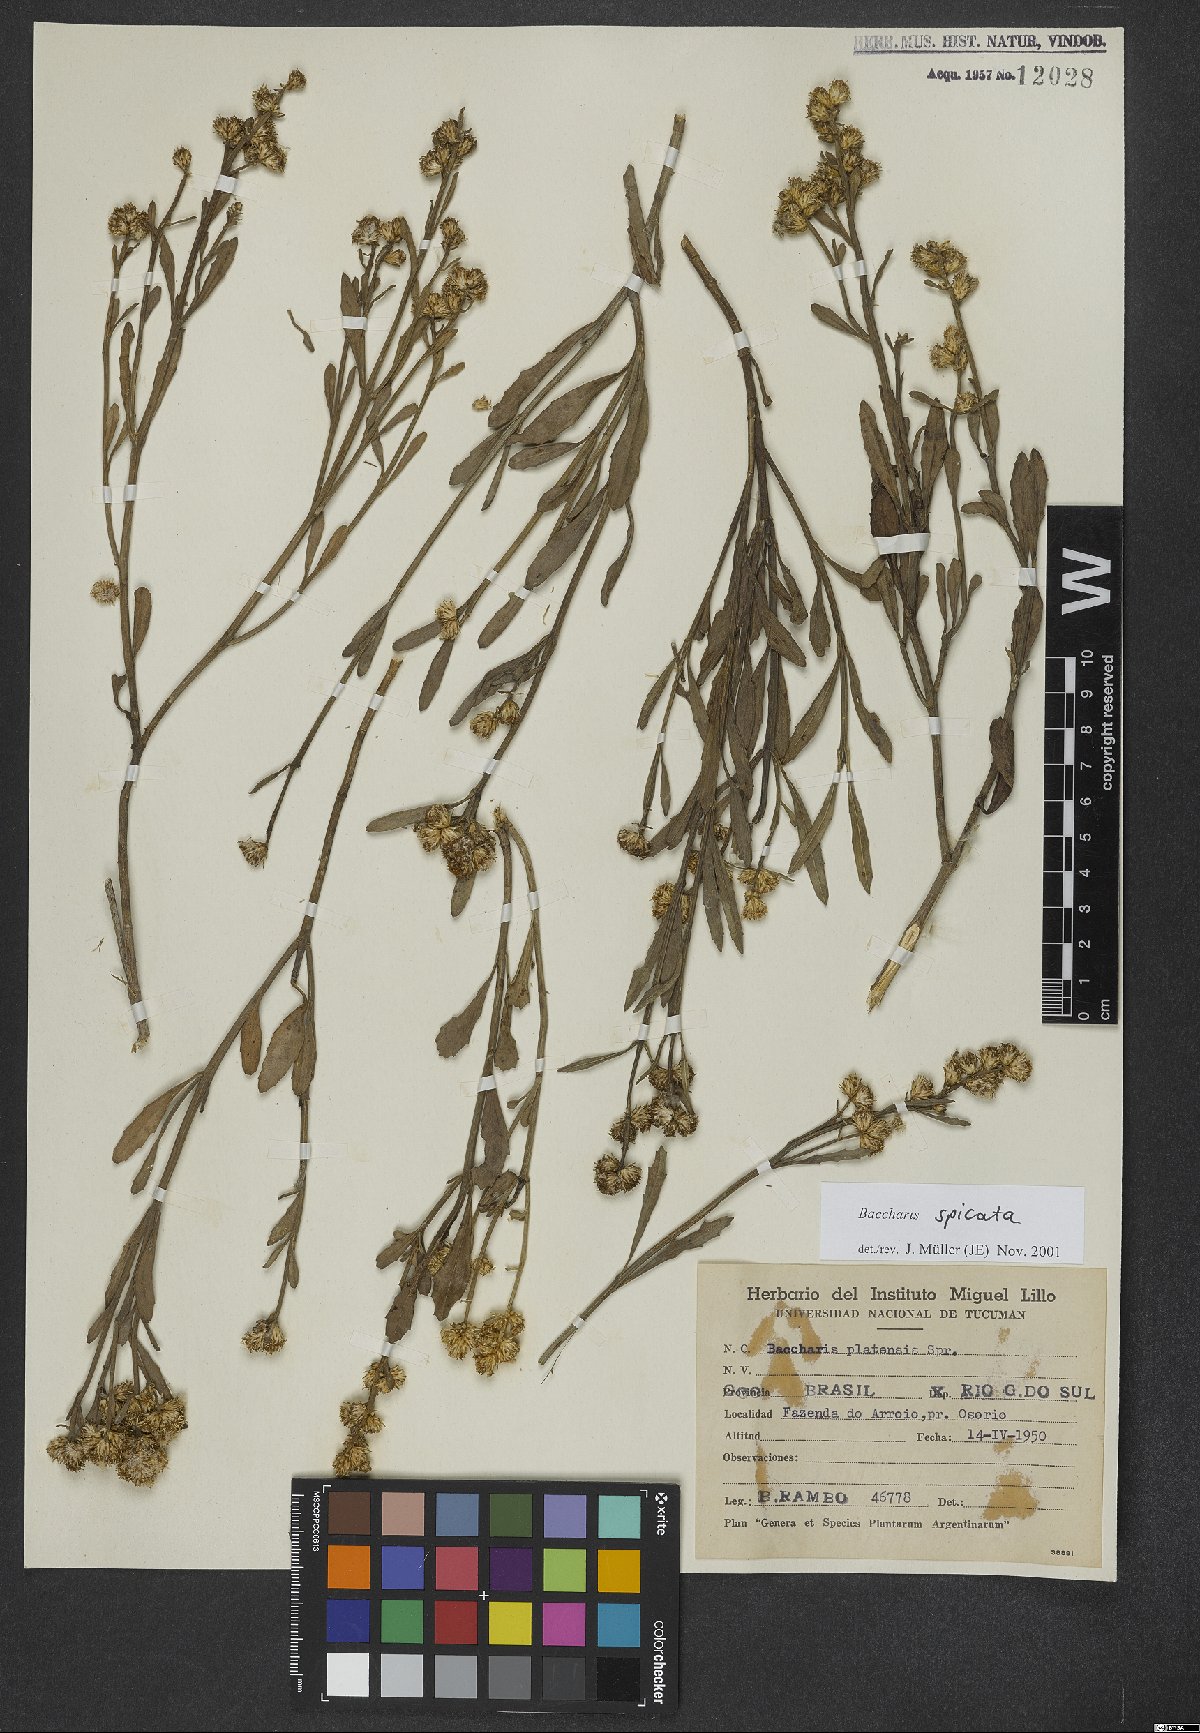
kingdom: Plantae
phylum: Tracheophyta
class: Magnoliopsida
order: Asterales
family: Asteraceae
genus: Baccharis
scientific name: Baccharis spicata
